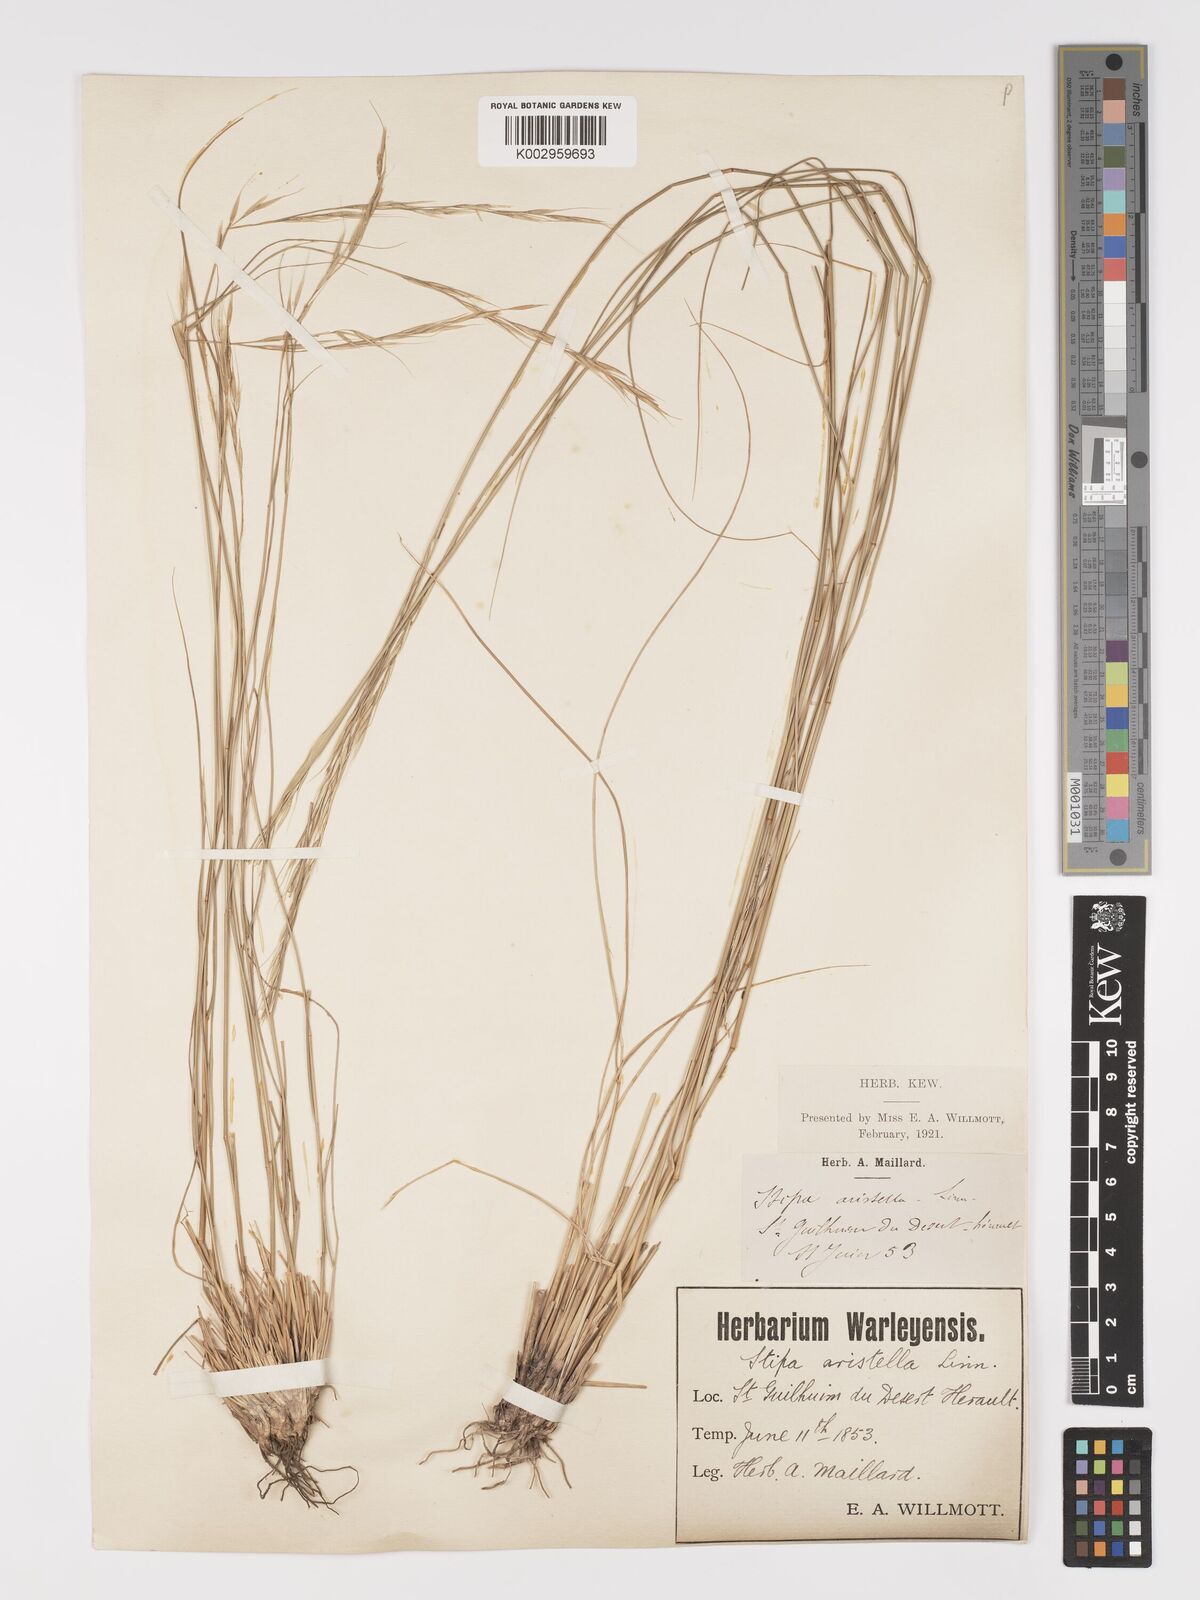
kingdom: Plantae
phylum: Tracheophyta
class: Liliopsida
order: Poales
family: Poaceae
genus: Achnatherum
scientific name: Achnatherum bromoides
